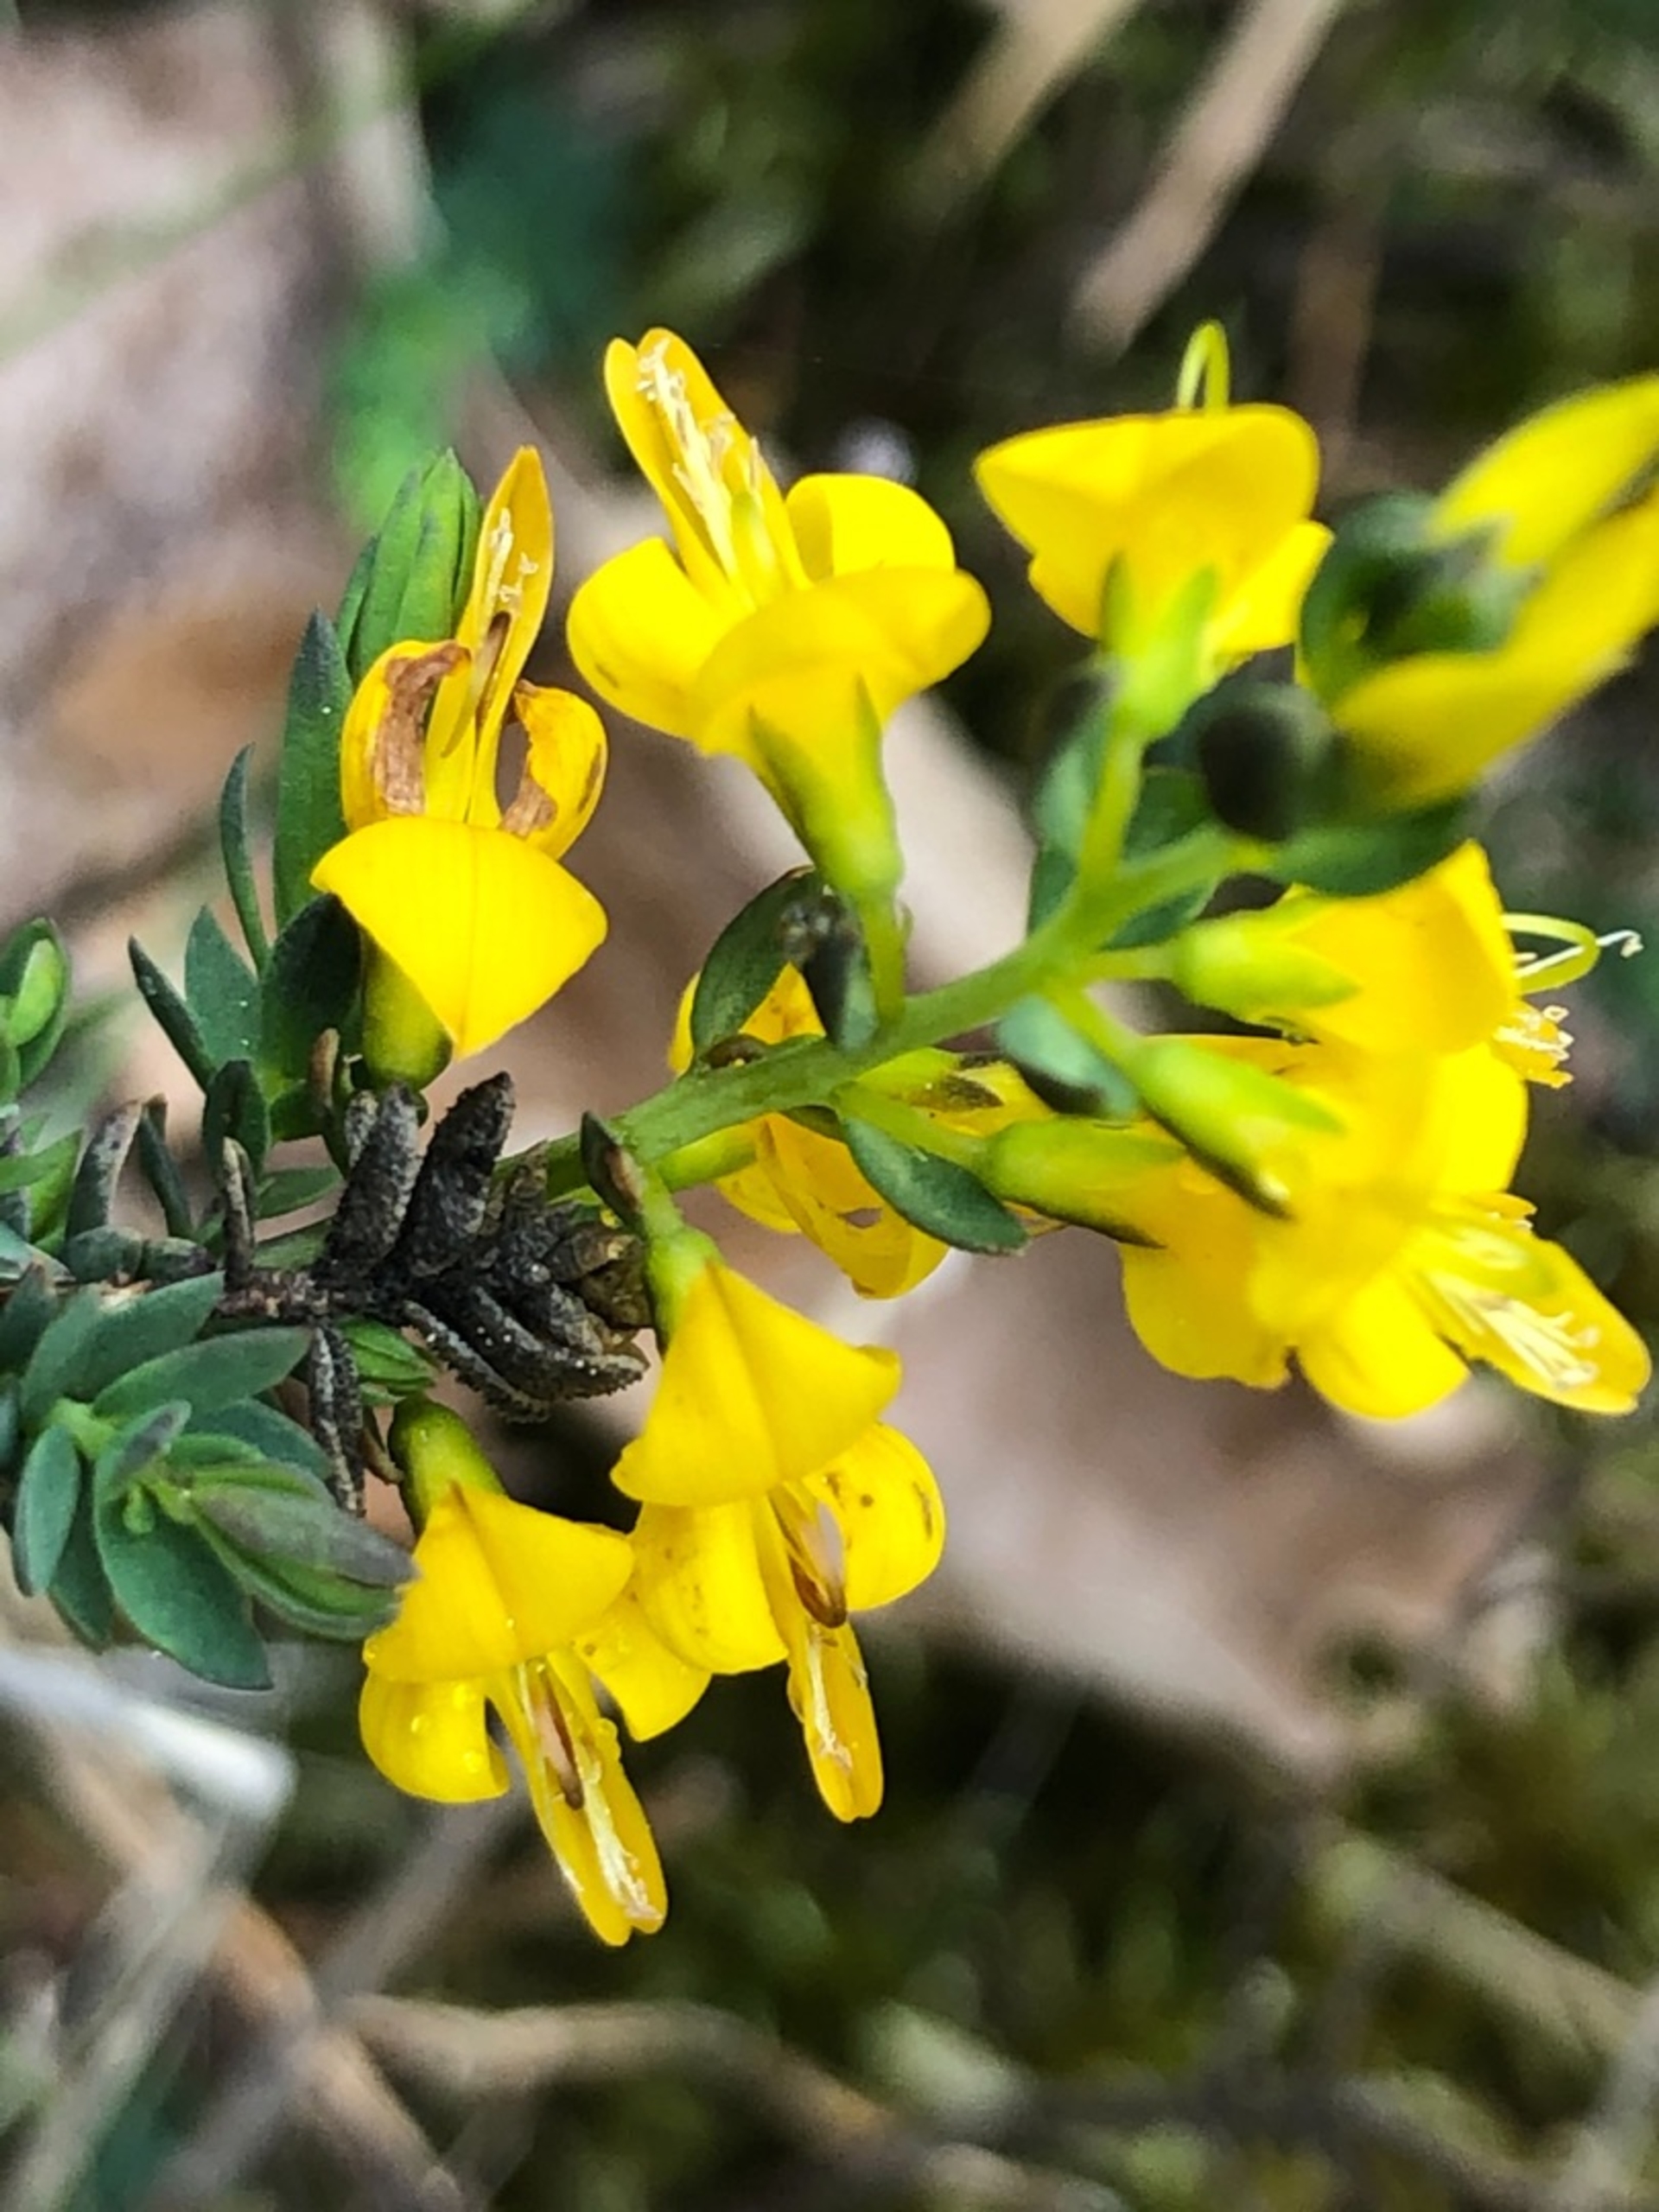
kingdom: Plantae
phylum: Tracheophyta
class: Magnoliopsida
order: Fabales
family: Fabaceae
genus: Genista
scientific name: Genista anglica
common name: Engelsk visse
